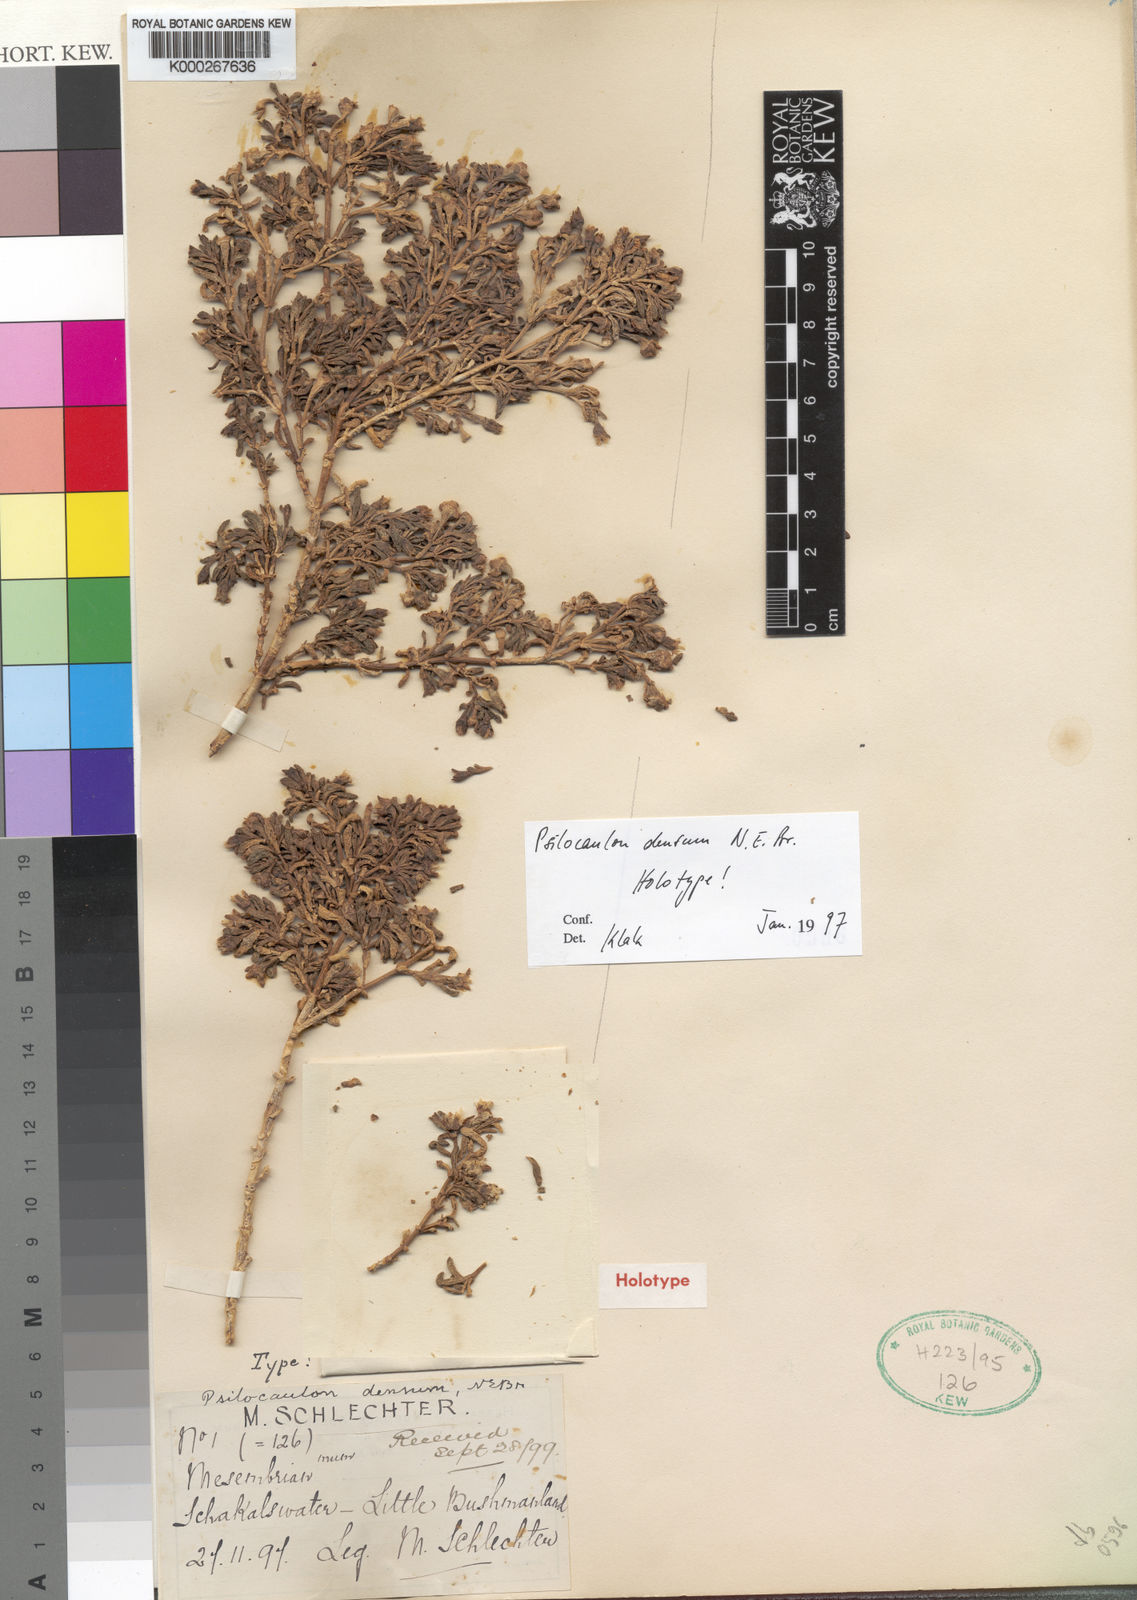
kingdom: Plantae
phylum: Tracheophyta
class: Magnoliopsida
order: Caryophyllales
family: Aizoaceae
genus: Mesembryanthemum
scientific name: Mesembryanthemum densum
